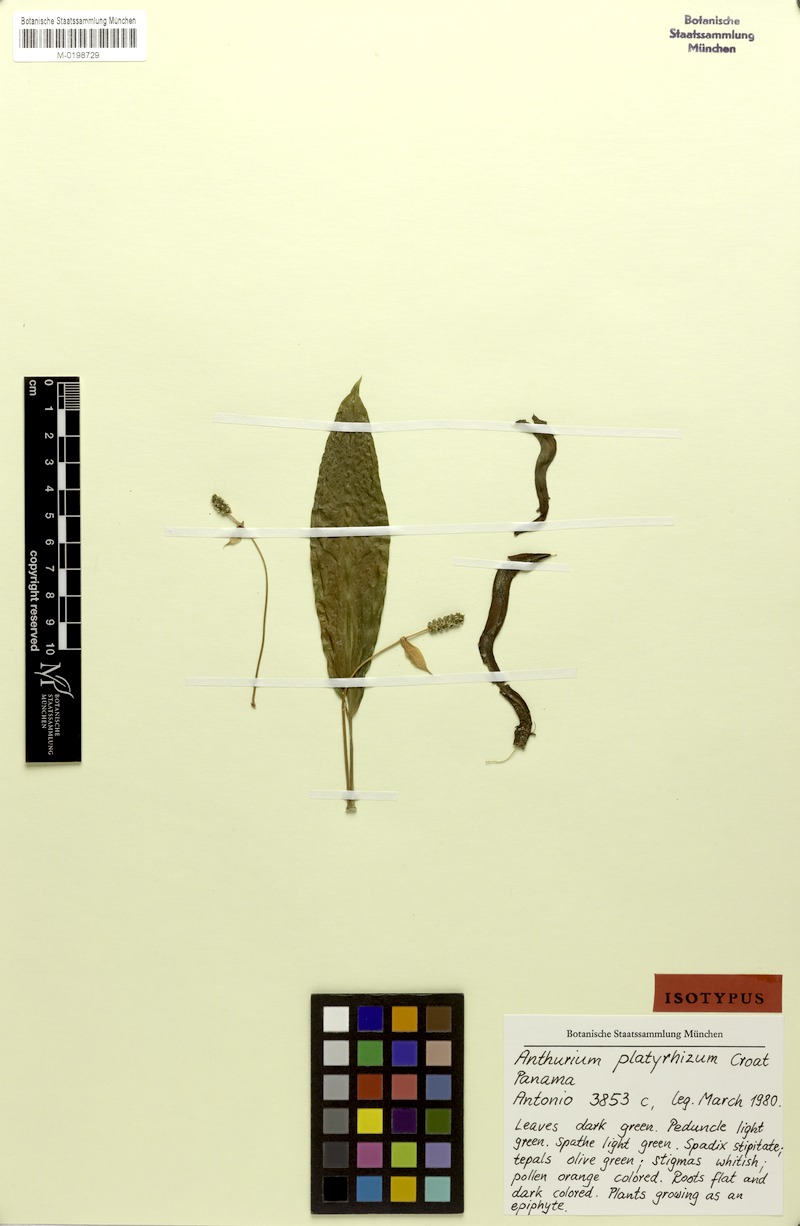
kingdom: Plantae
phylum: Tracheophyta
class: Liliopsida
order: Alismatales
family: Araceae
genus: Anthurium
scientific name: Anthurium platyrhizum
